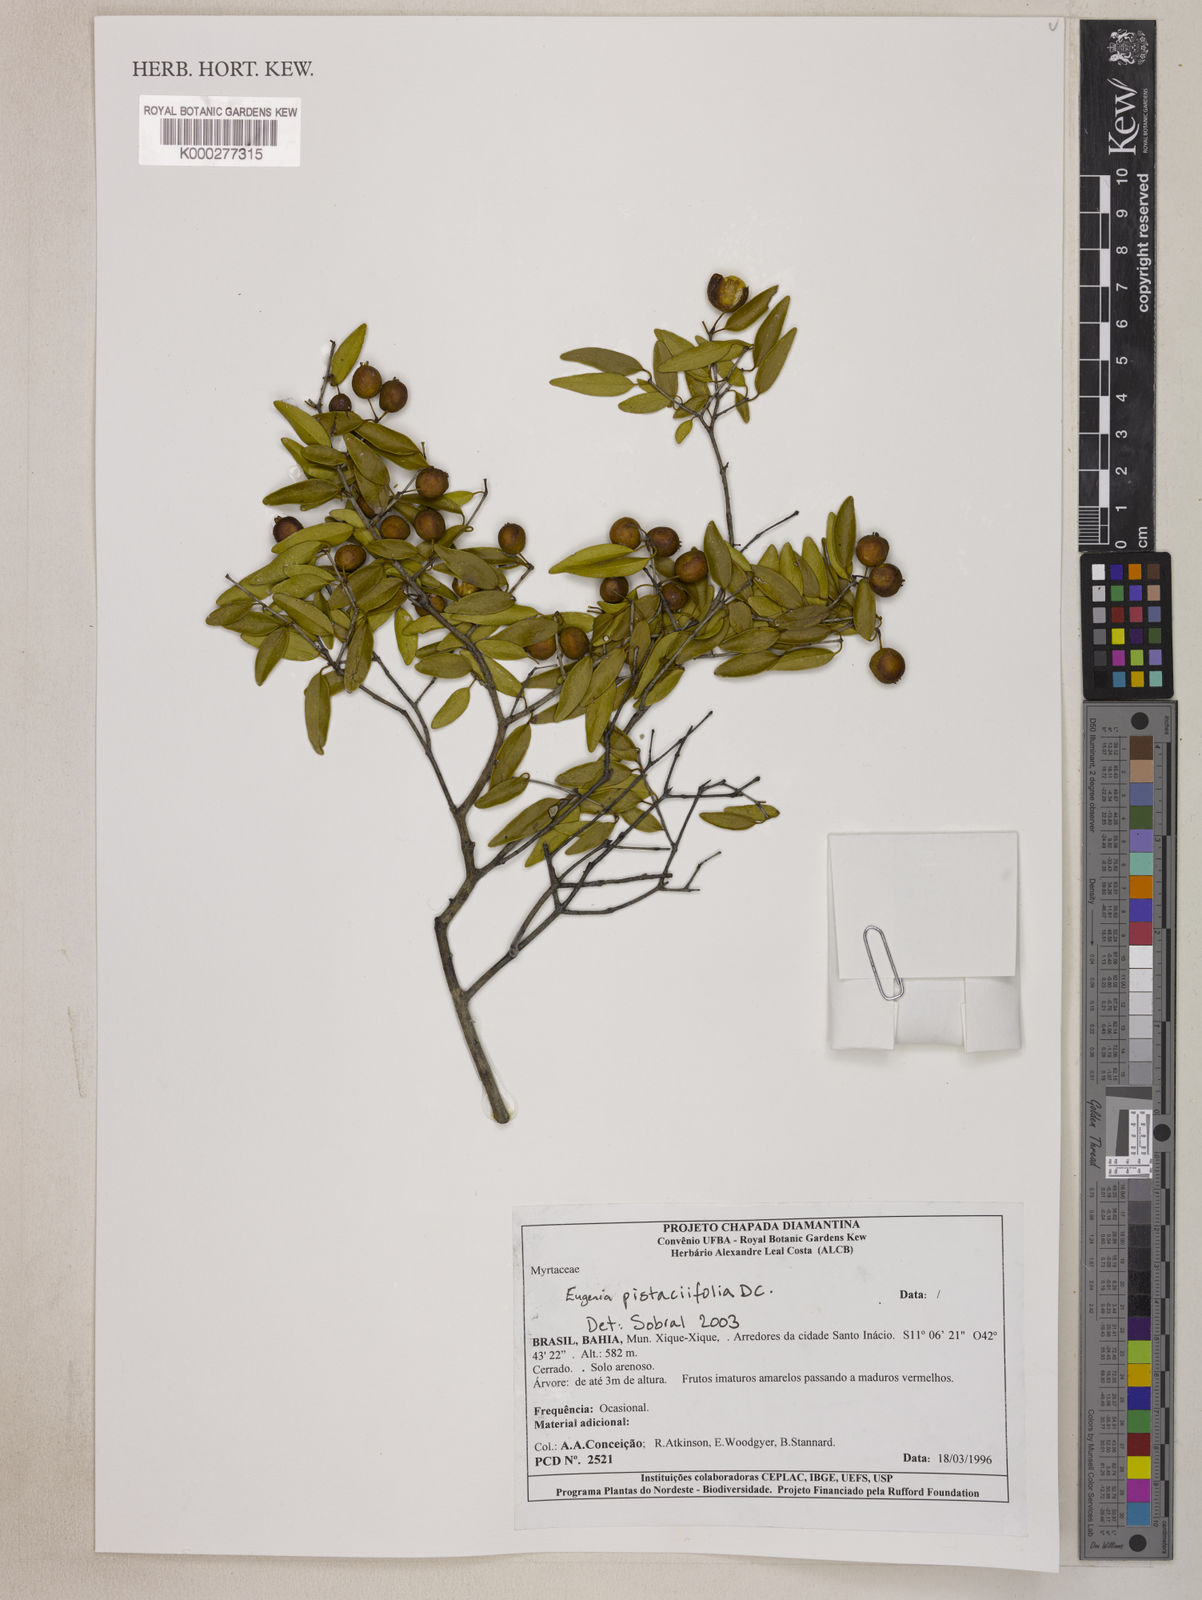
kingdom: Plantae
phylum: Tracheophyta
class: Magnoliopsida
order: Myrtales
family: Myrtaceae
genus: Eugenia
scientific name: Eugenia pistaciifolia
